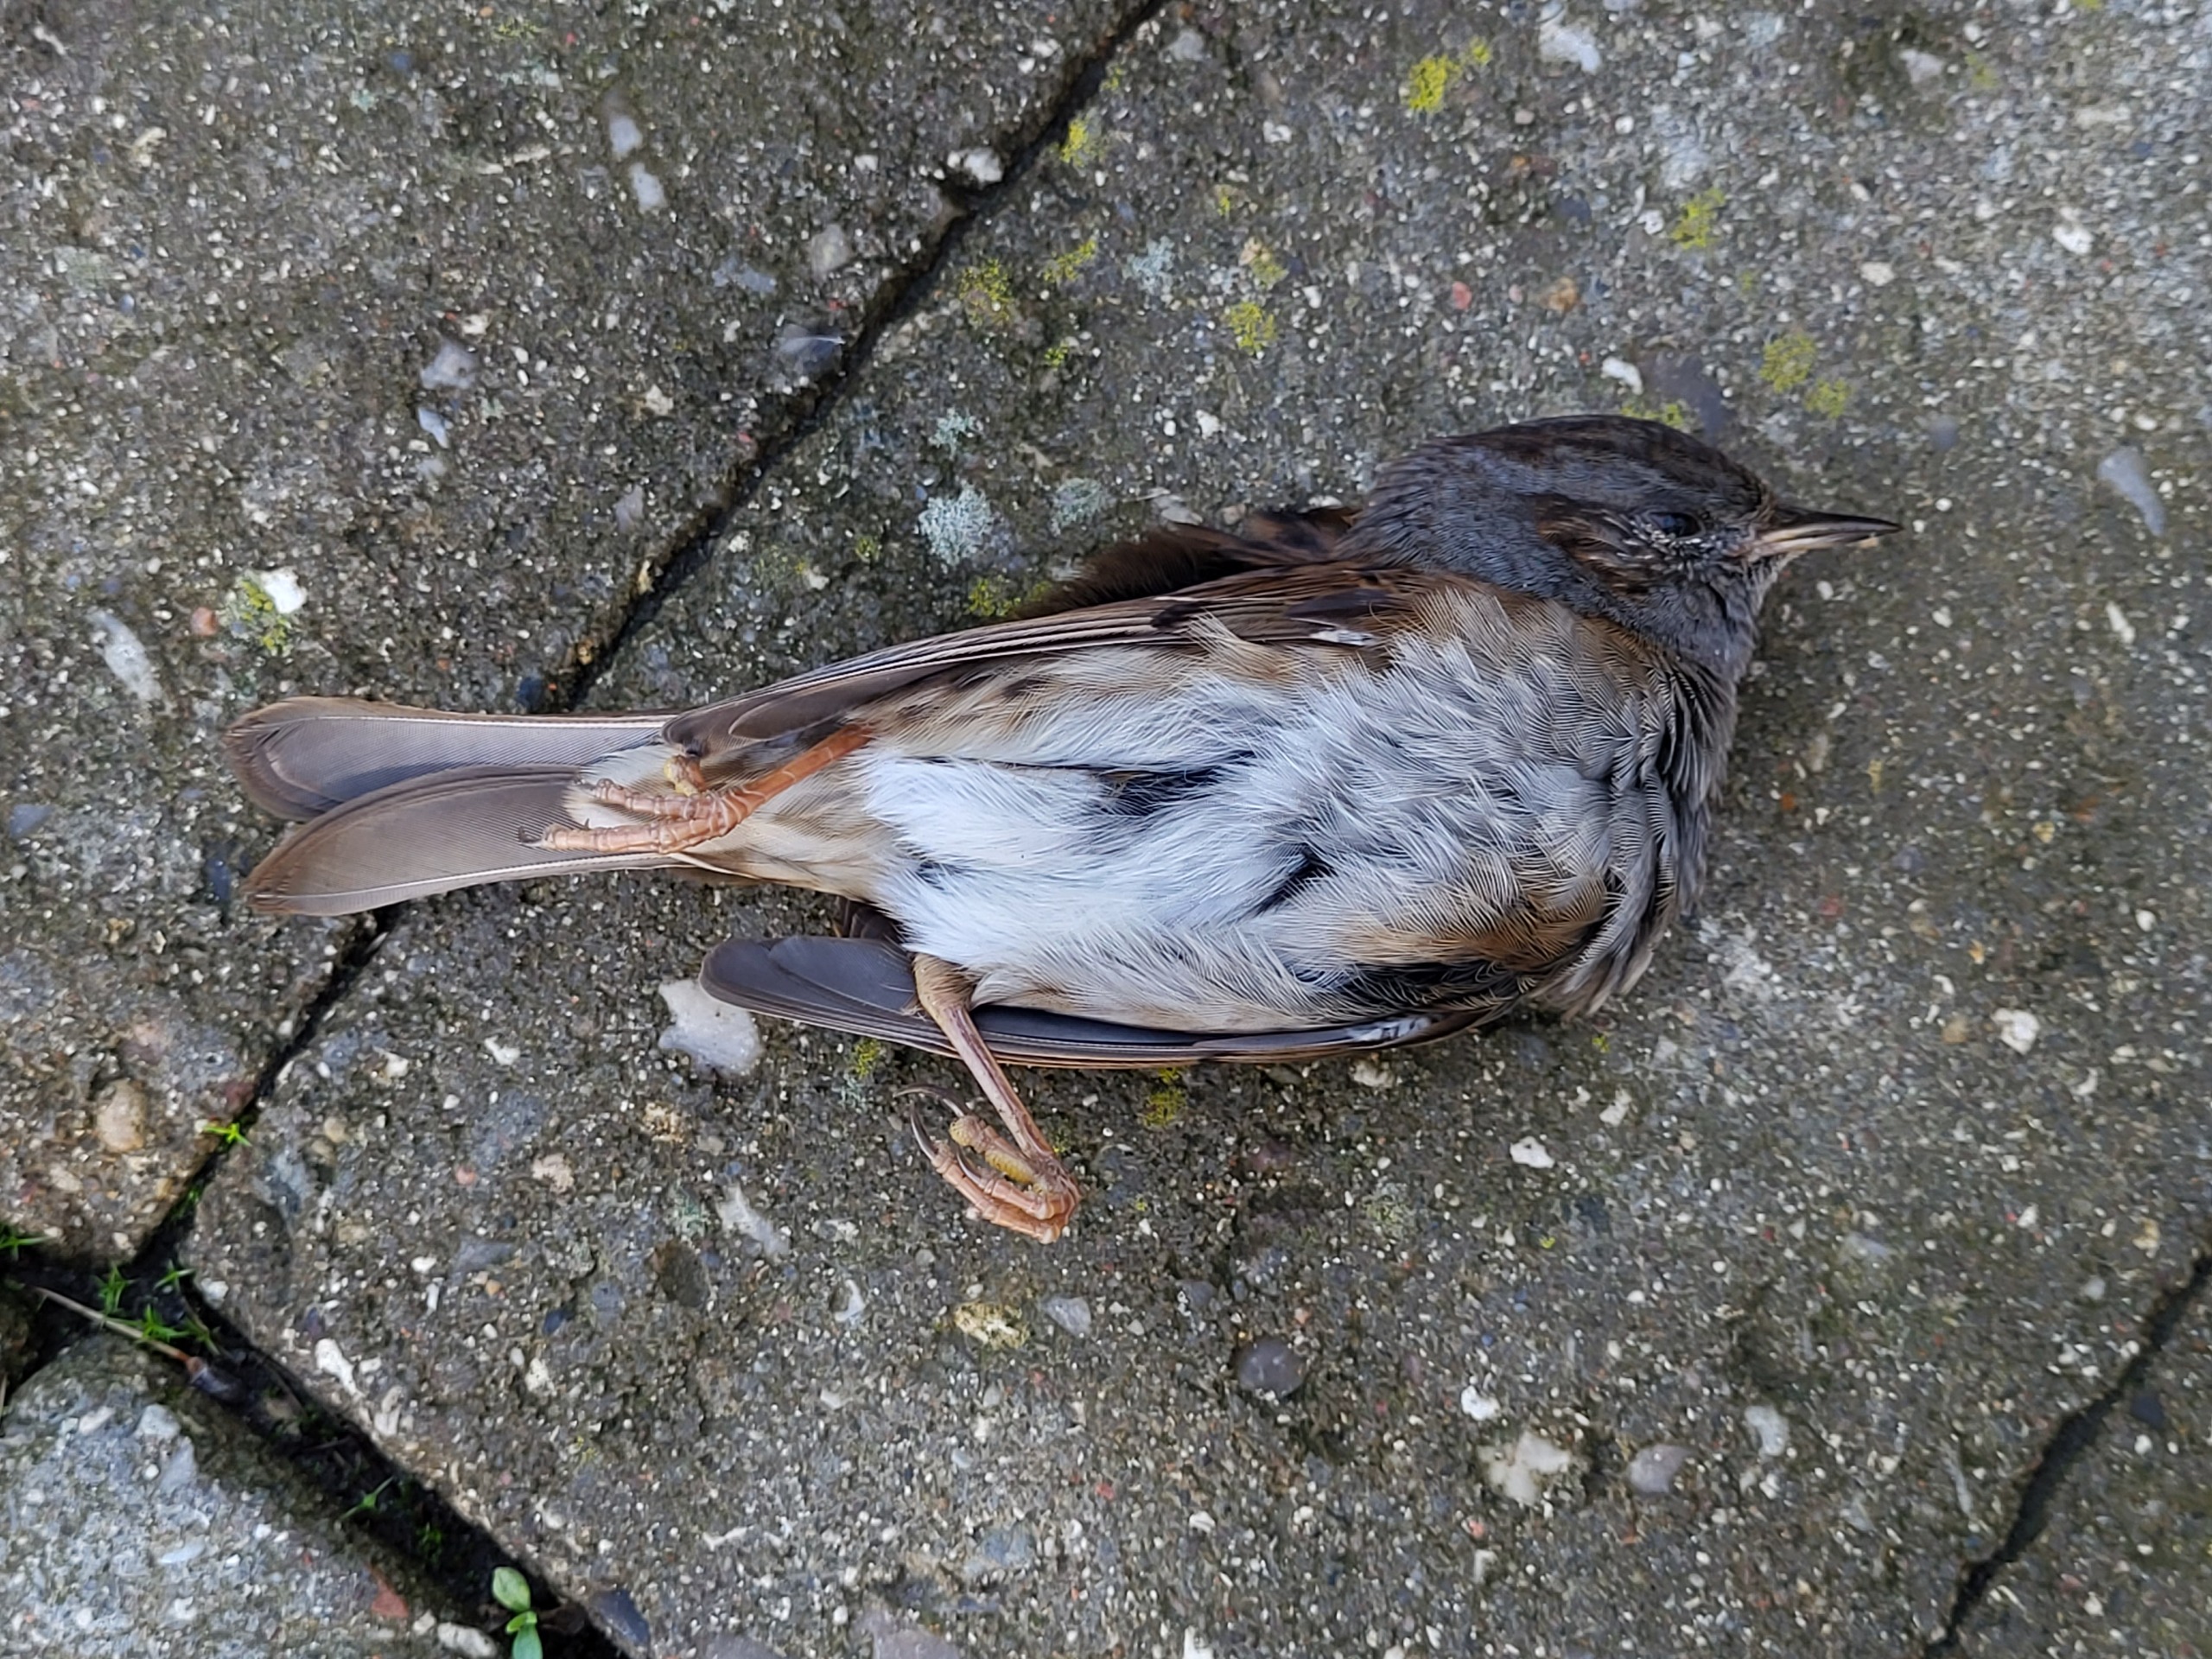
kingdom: Animalia
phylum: Chordata
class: Aves
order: Passeriformes
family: Prunellidae
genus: Prunella
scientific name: Prunella modularis
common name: Jernspurv
